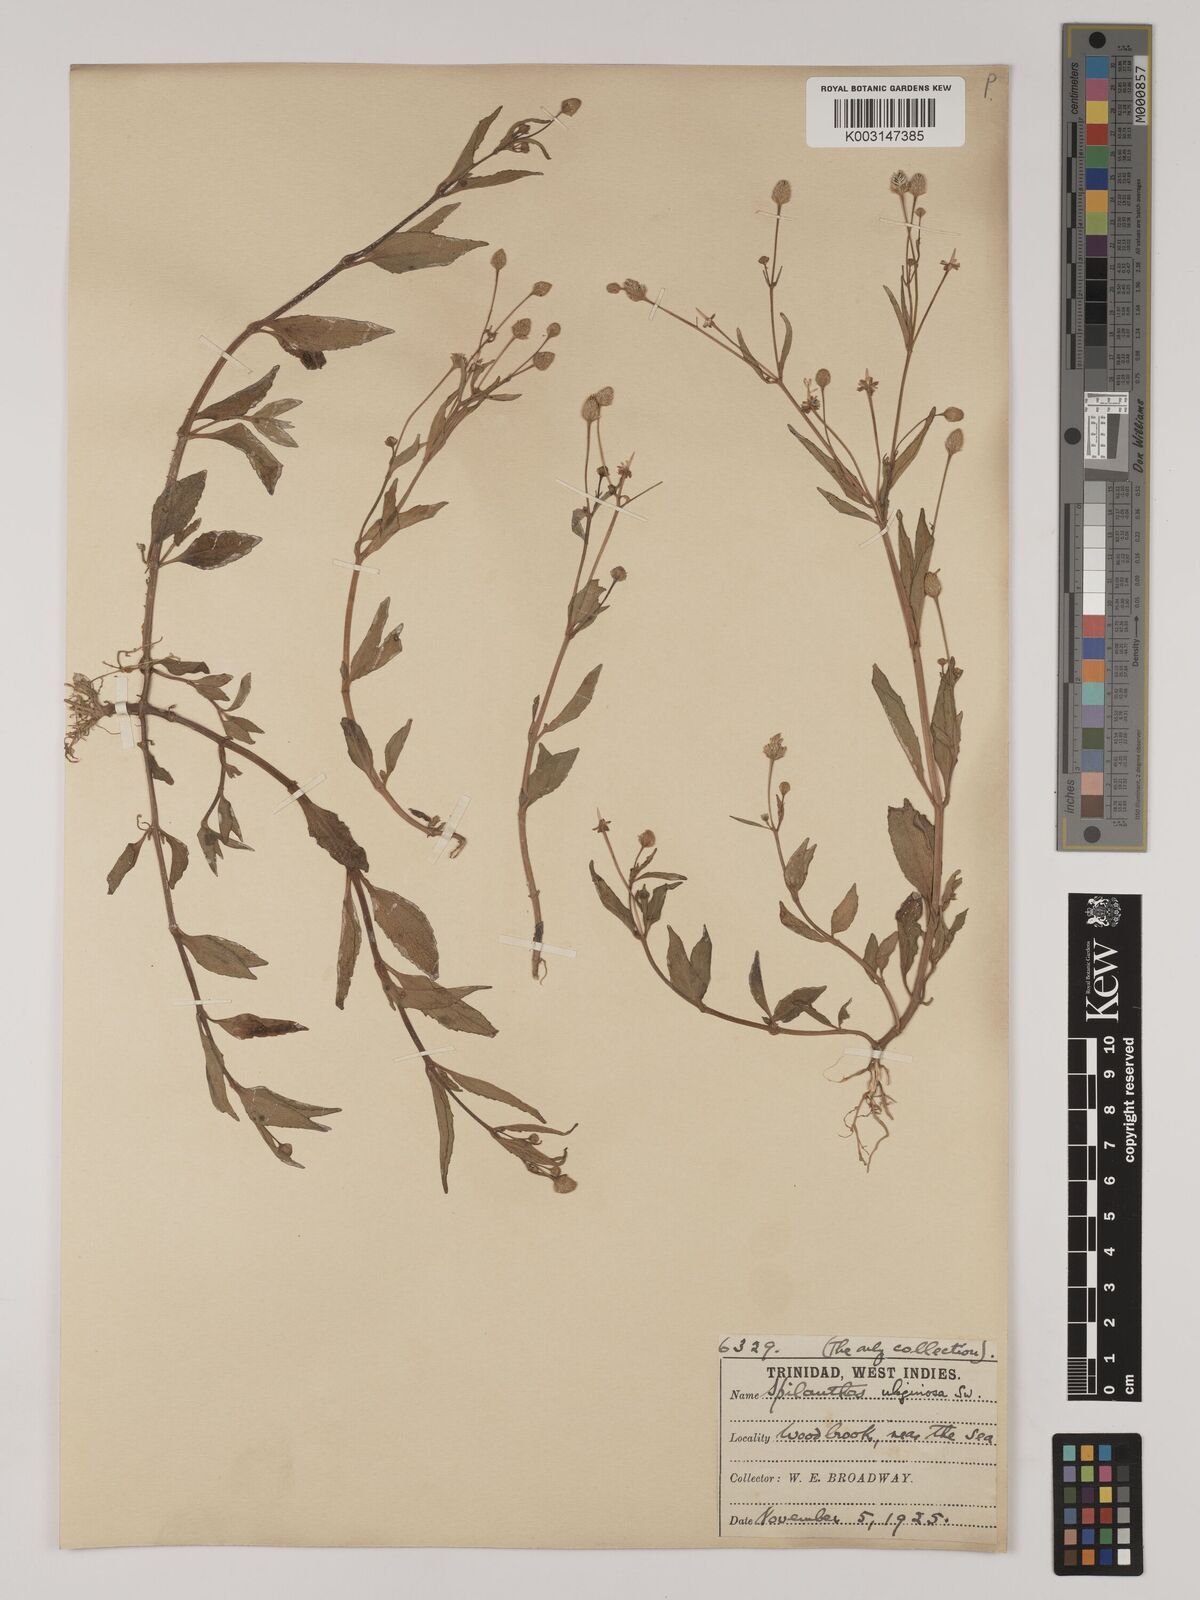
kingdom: Plantae
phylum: Tracheophyta
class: Magnoliopsida
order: Asterales
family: Asteraceae
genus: Acmella
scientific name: Acmella uliginosa
